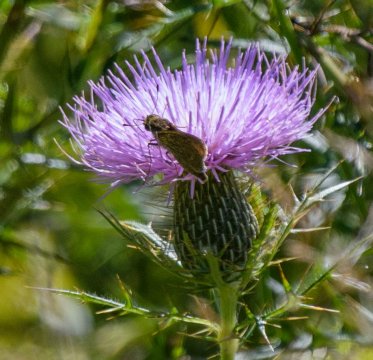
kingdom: Animalia
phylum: Arthropoda
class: Insecta
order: Lepidoptera
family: Hesperiidae
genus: Nastra
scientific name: Nastra lherminier
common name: Swarthy Skipper
